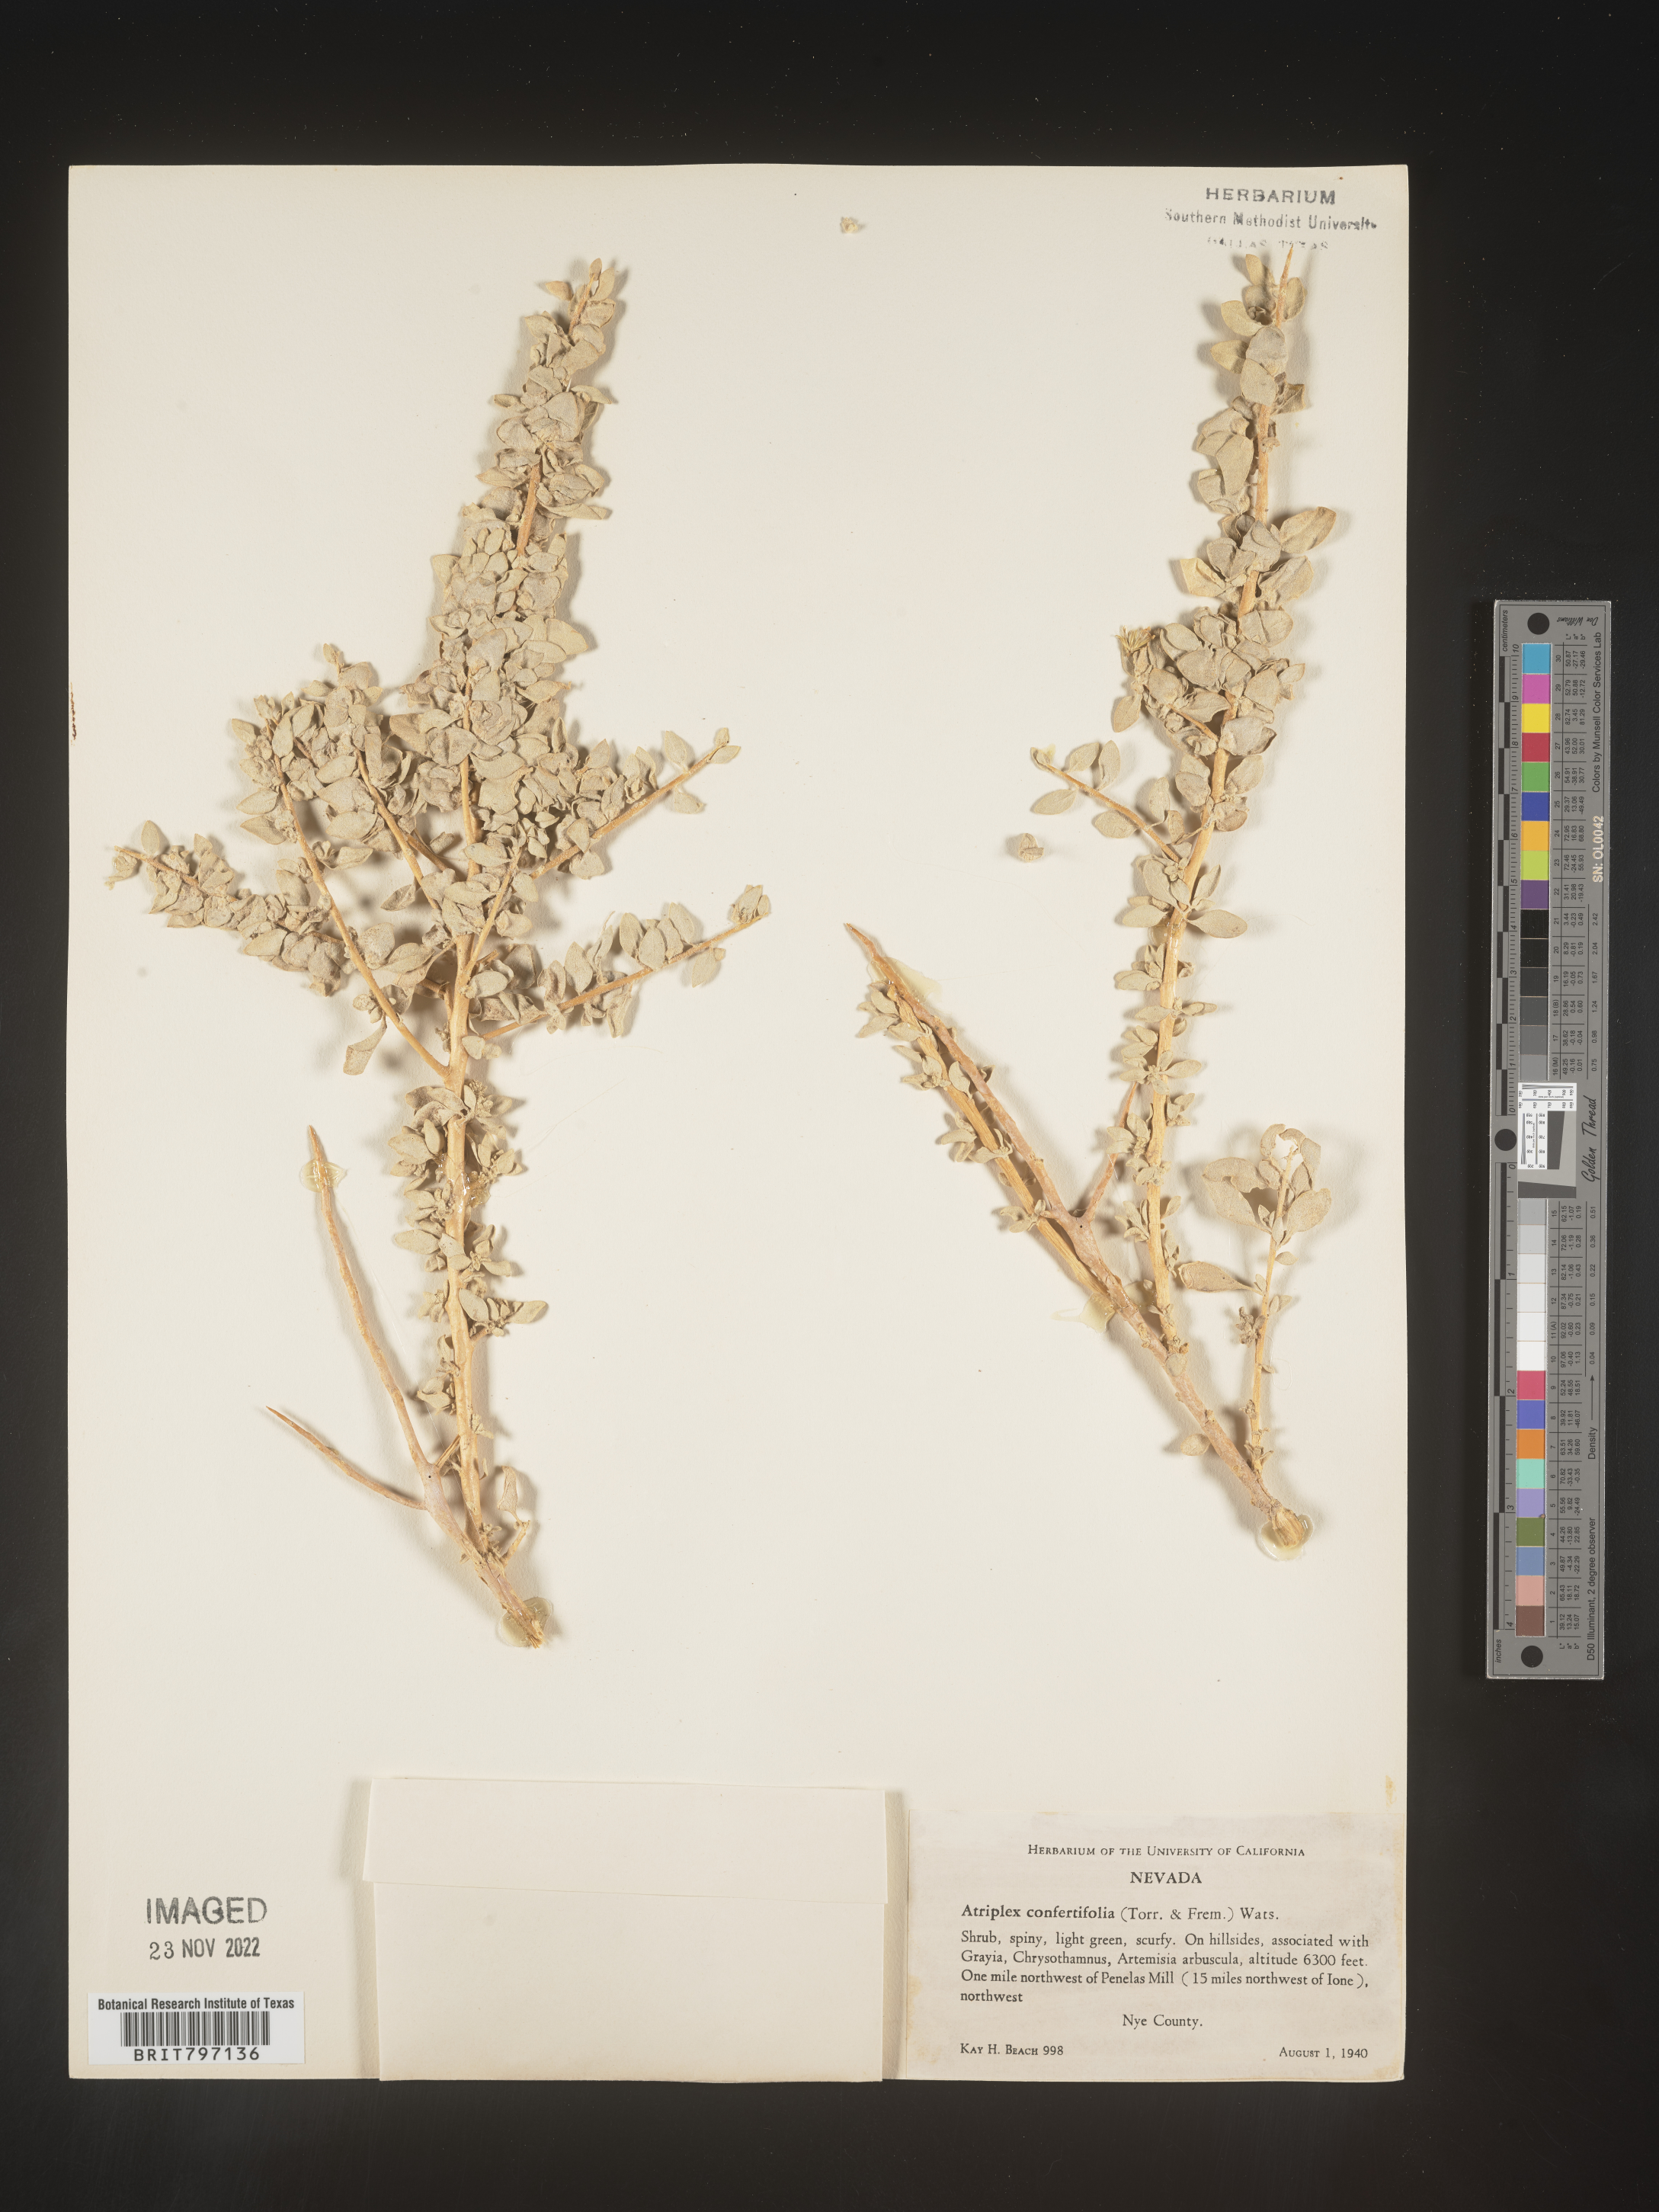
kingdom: Plantae
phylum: Tracheophyta
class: Magnoliopsida
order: Caryophyllales
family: Amaranthaceae
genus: Atriplex
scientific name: Atriplex confertifolia
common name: Shadscale
